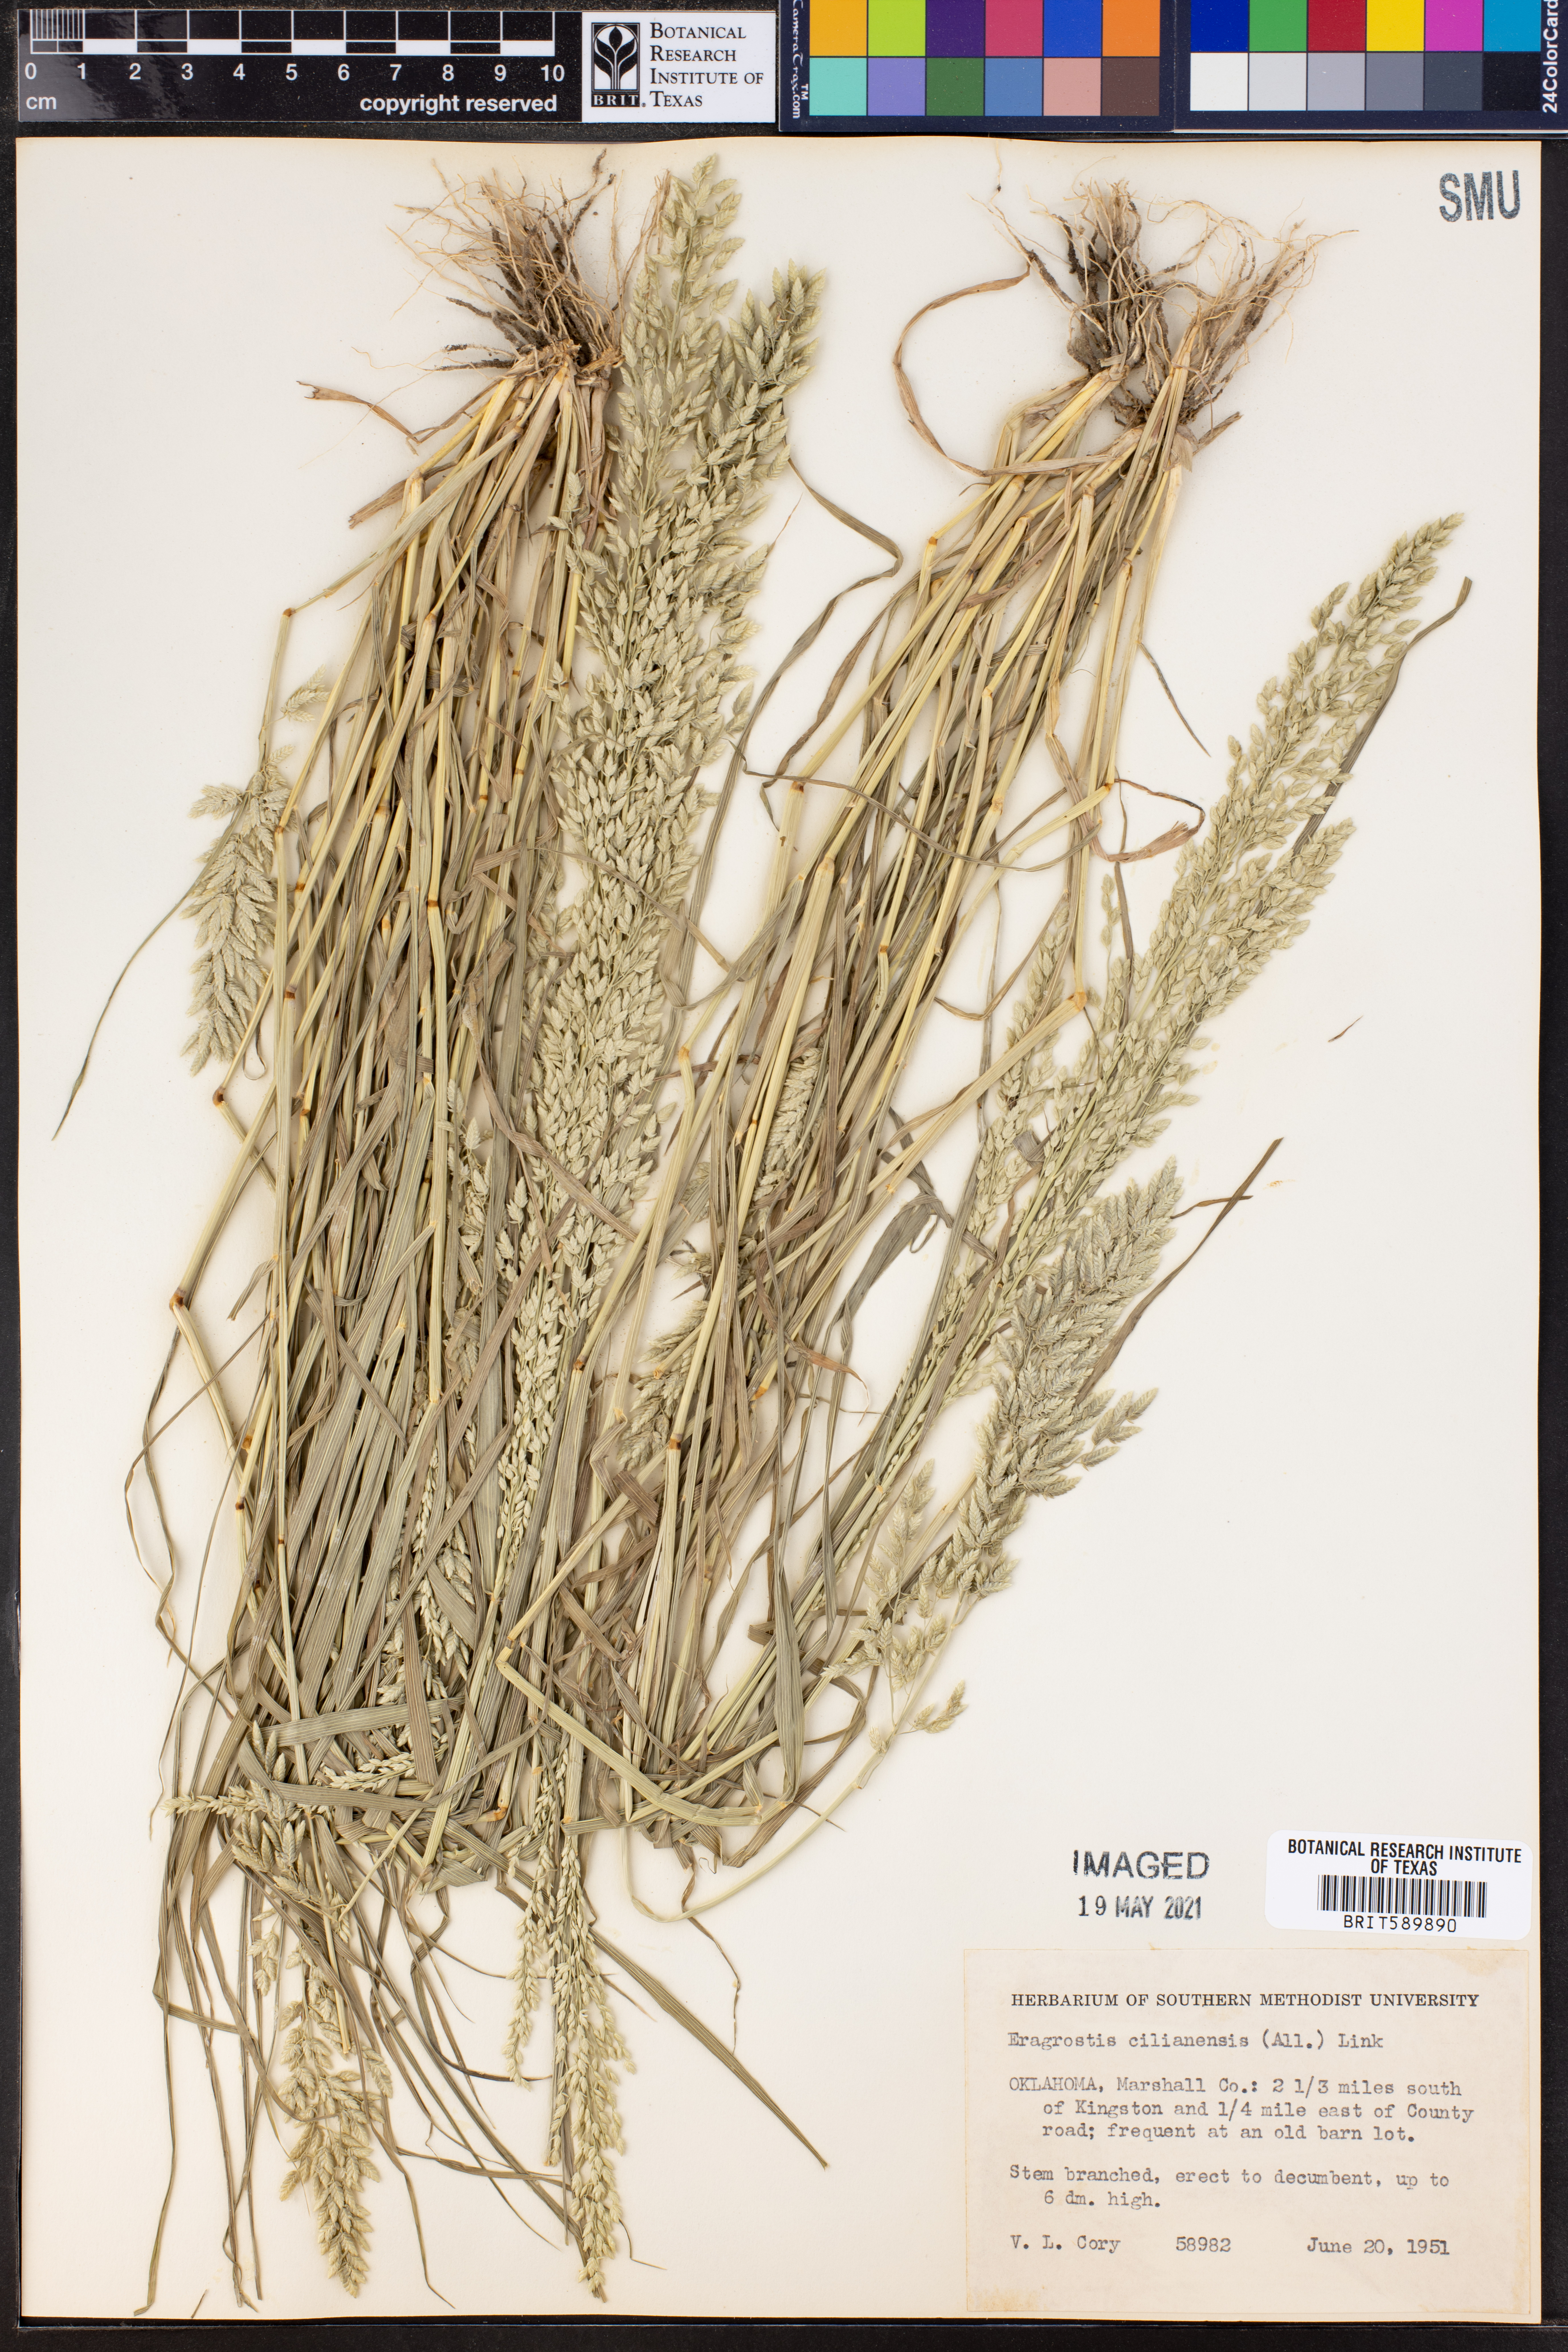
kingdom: Plantae
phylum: Tracheophyta
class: Liliopsida
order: Poales
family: Poaceae
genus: Eragrostis
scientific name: Eragrostis cilianensis
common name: Stinkgrass
